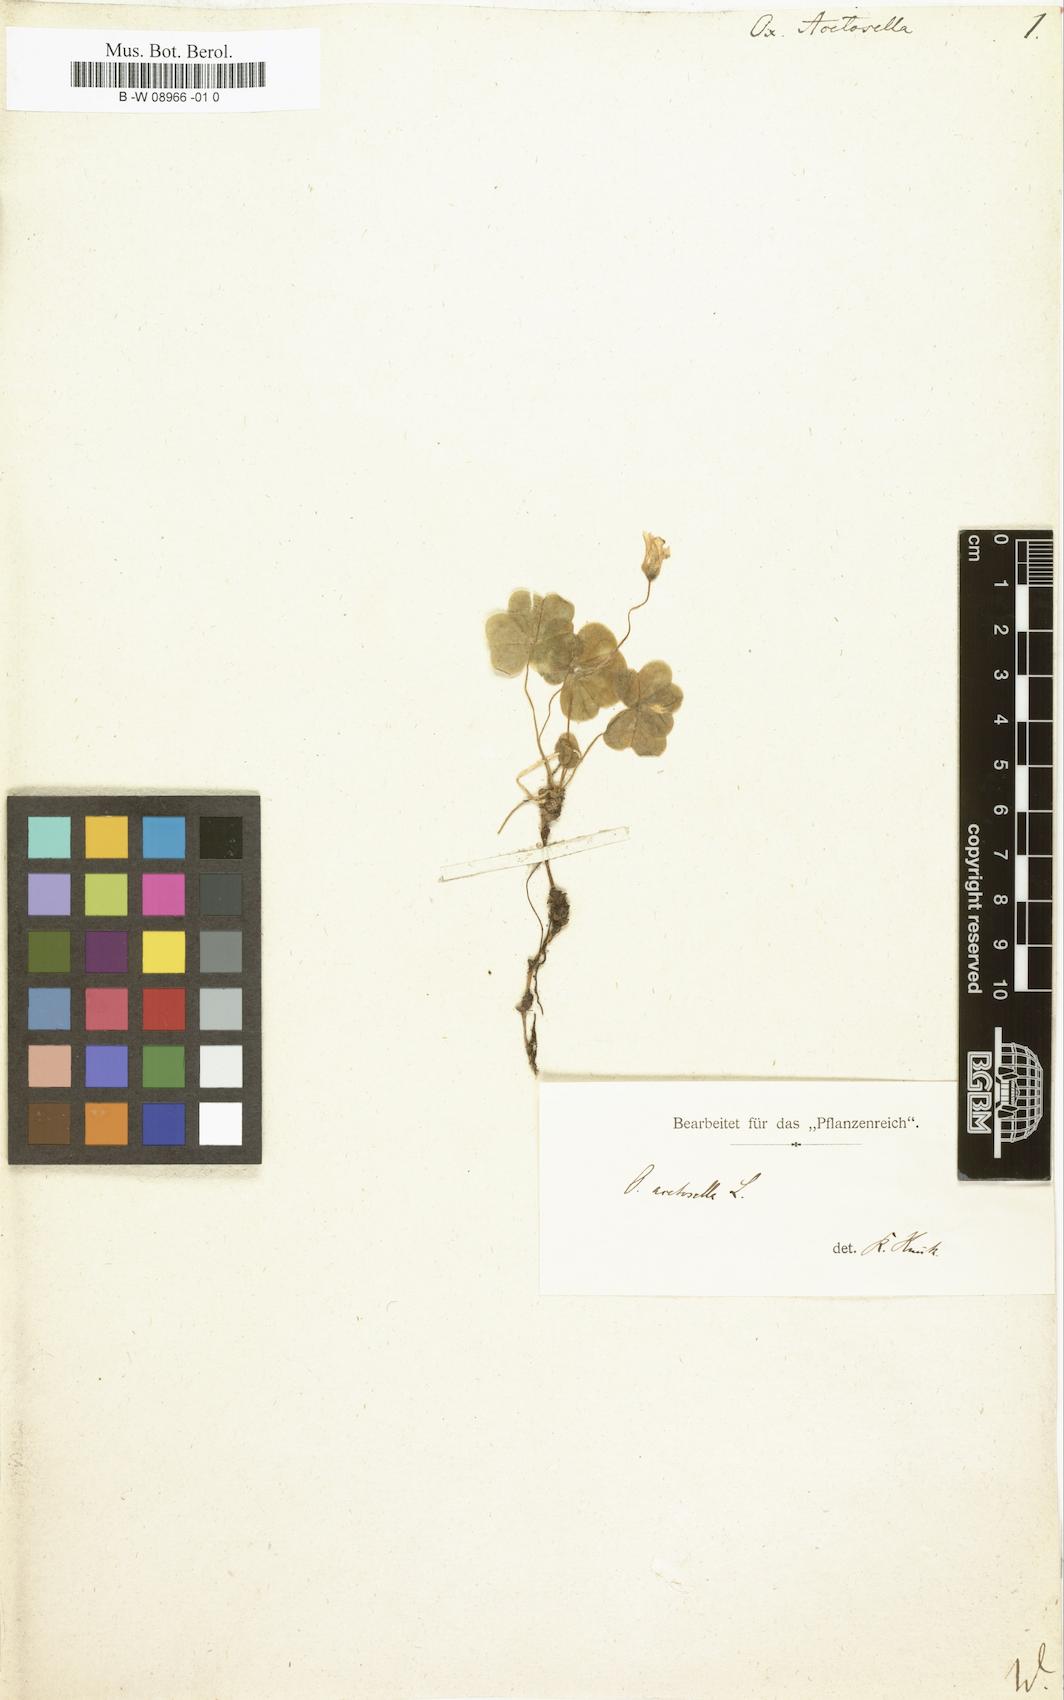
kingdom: Plantae
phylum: Tracheophyta
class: Magnoliopsida
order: Oxalidales
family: Oxalidaceae
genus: Oxalis
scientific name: Oxalis acetosella
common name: Wood-sorrel
